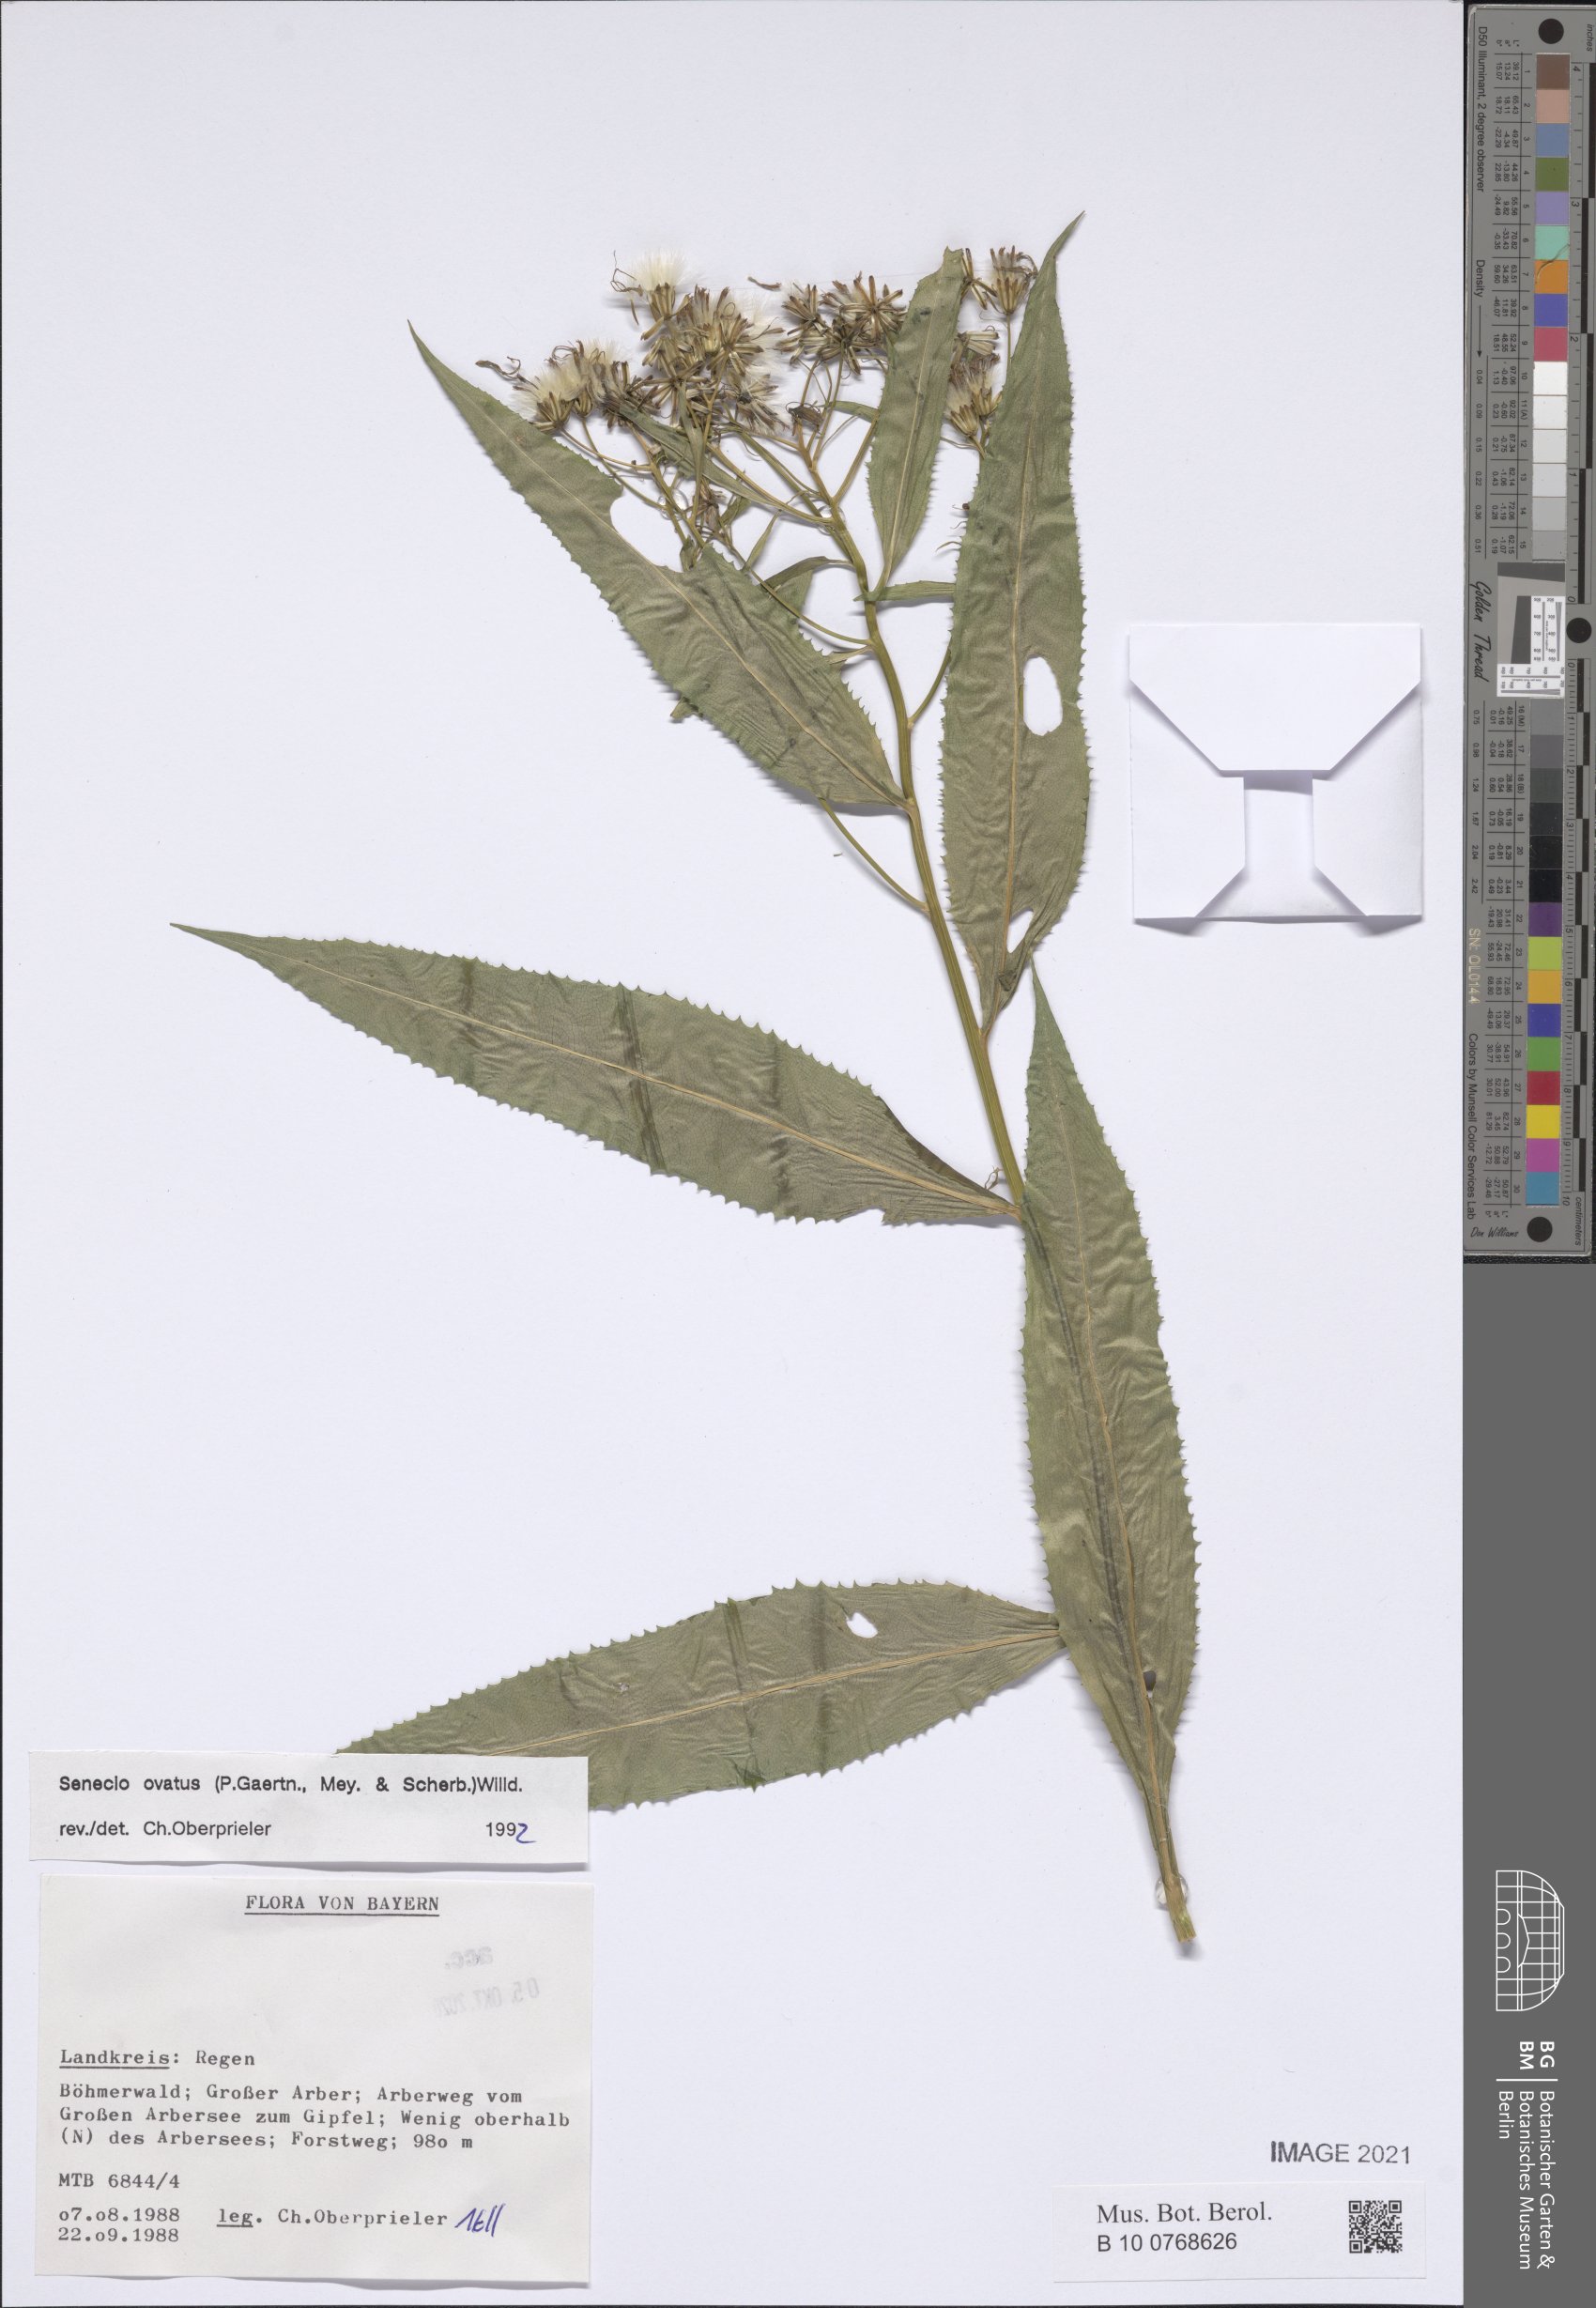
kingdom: Plantae
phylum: Tracheophyta
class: Magnoliopsida
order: Asterales
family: Asteraceae
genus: Senecio
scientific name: Senecio ovatus
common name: Wood ragwort
